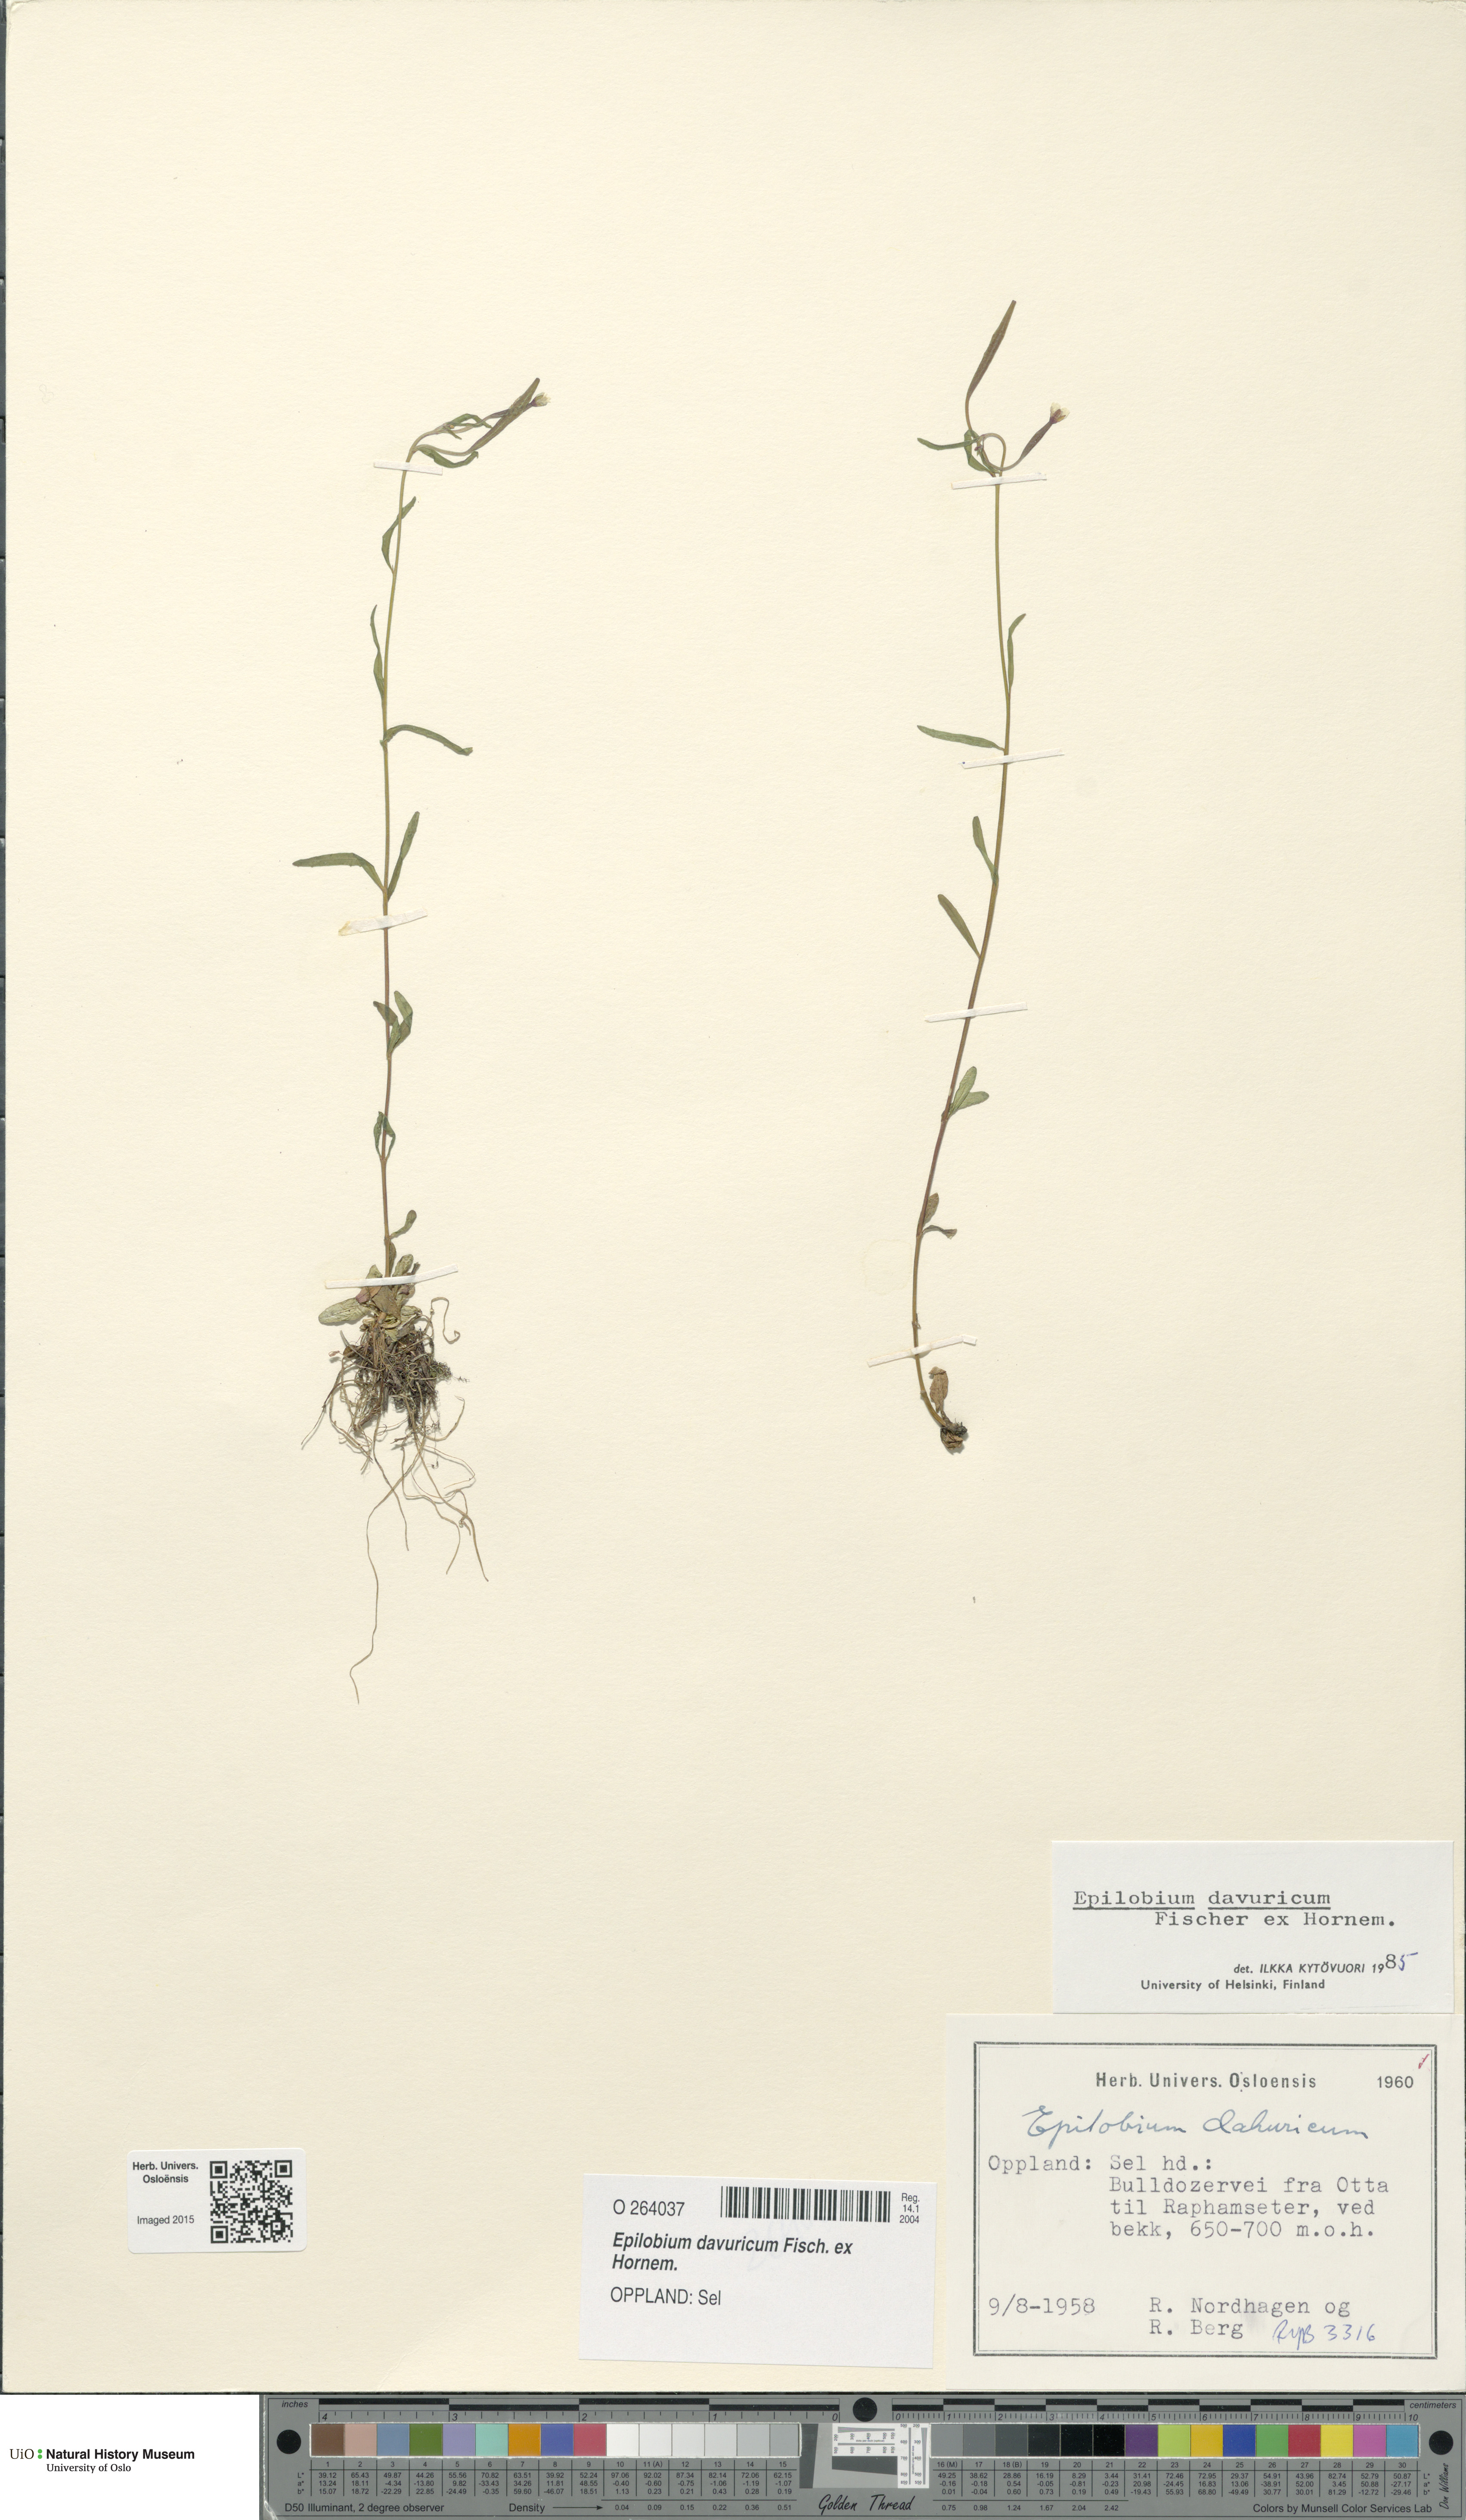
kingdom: Plantae
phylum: Tracheophyta
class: Magnoliopsida
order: Myrtales
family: Onagraceae
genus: Epilobium
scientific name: Epilobium davuricum
